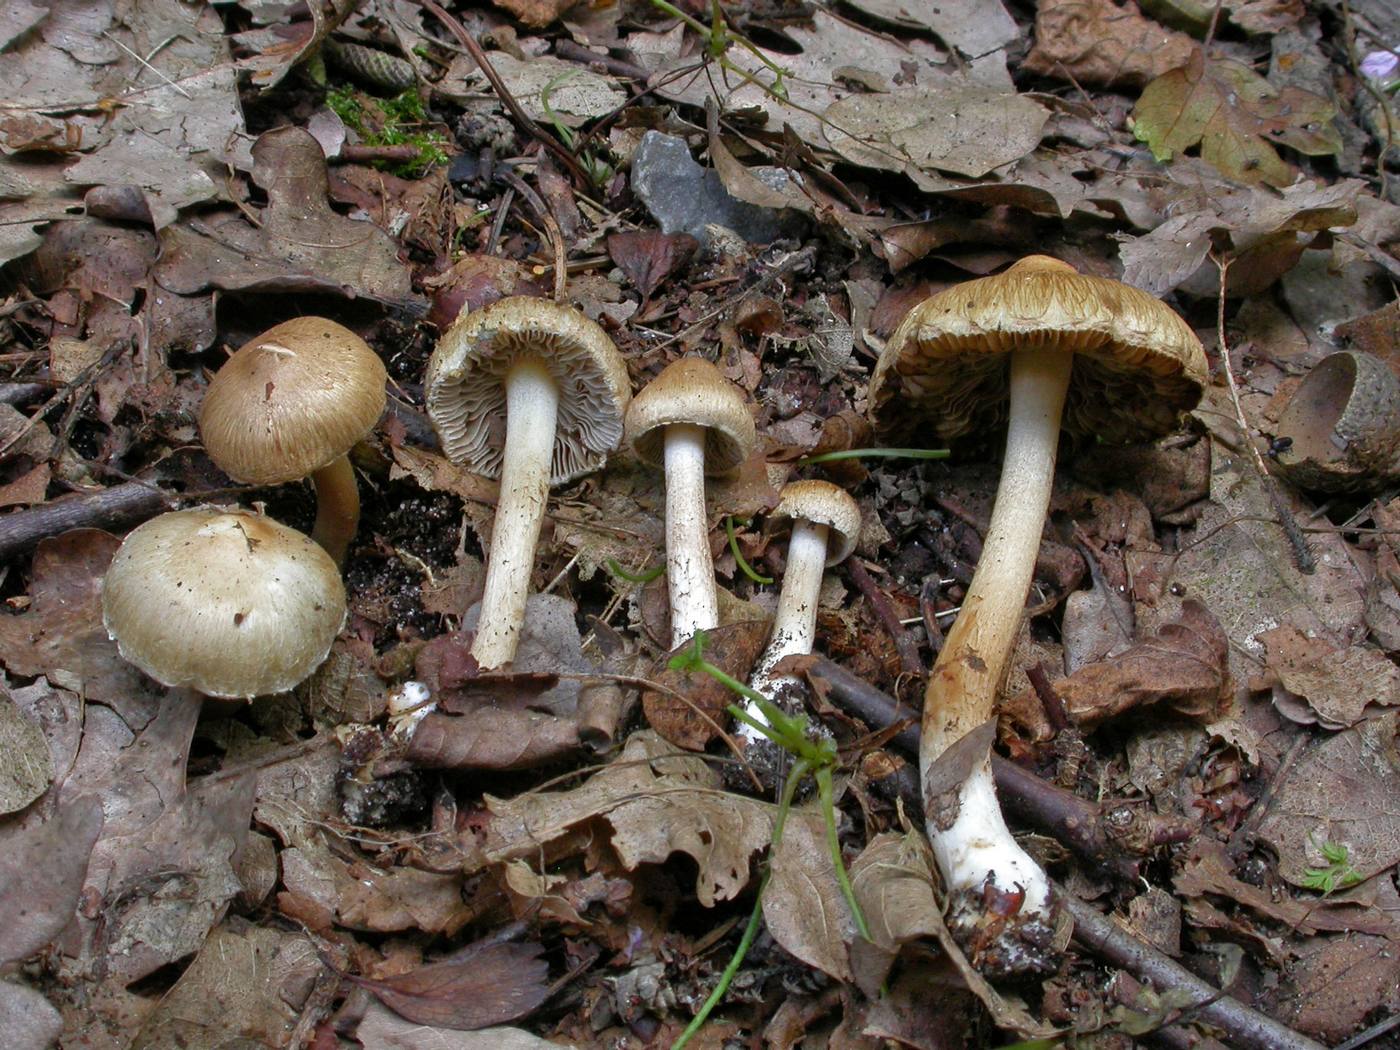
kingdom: Fungi
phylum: Basidiomycota
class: Agaricomycetes
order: Agaricales
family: Inocybaceae
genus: Inocybe
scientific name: Inocybe ochroalba
